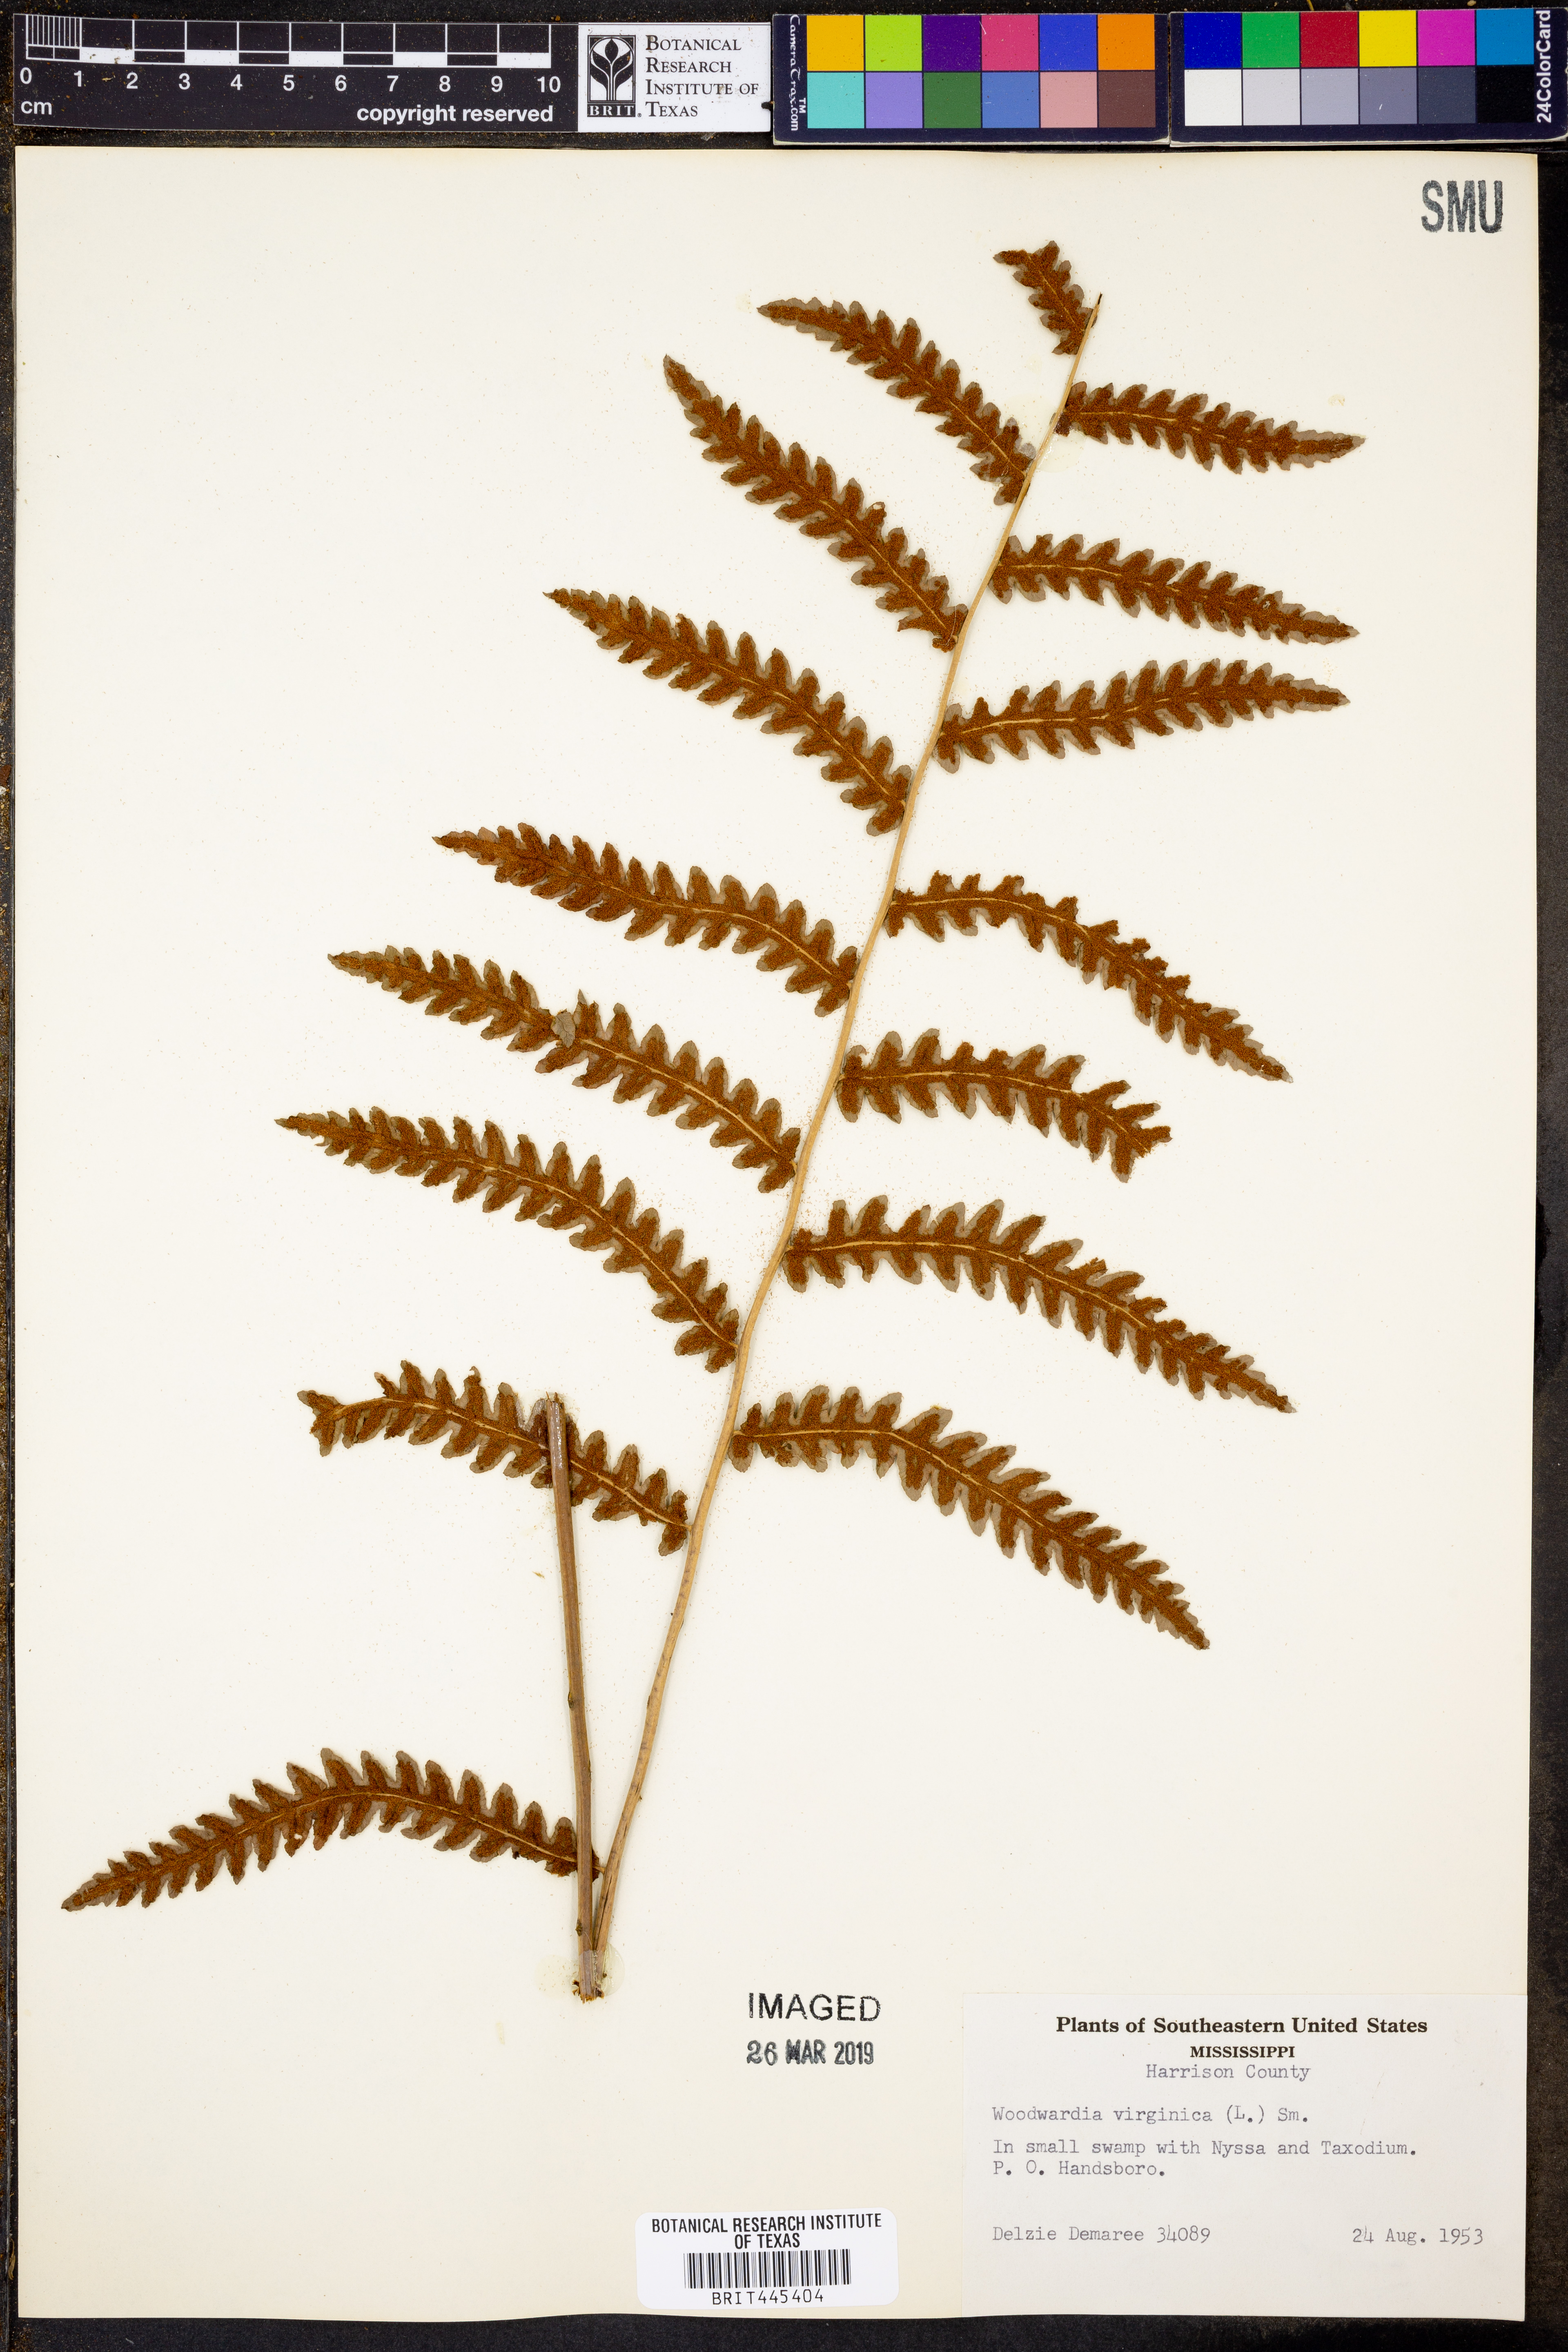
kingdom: Plantae
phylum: Tracheophyta
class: Polypodiopsida
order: Polypodiales
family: Blechnaceae
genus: Anchistea
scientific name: Anchistea virginica
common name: Virginia chain fern
